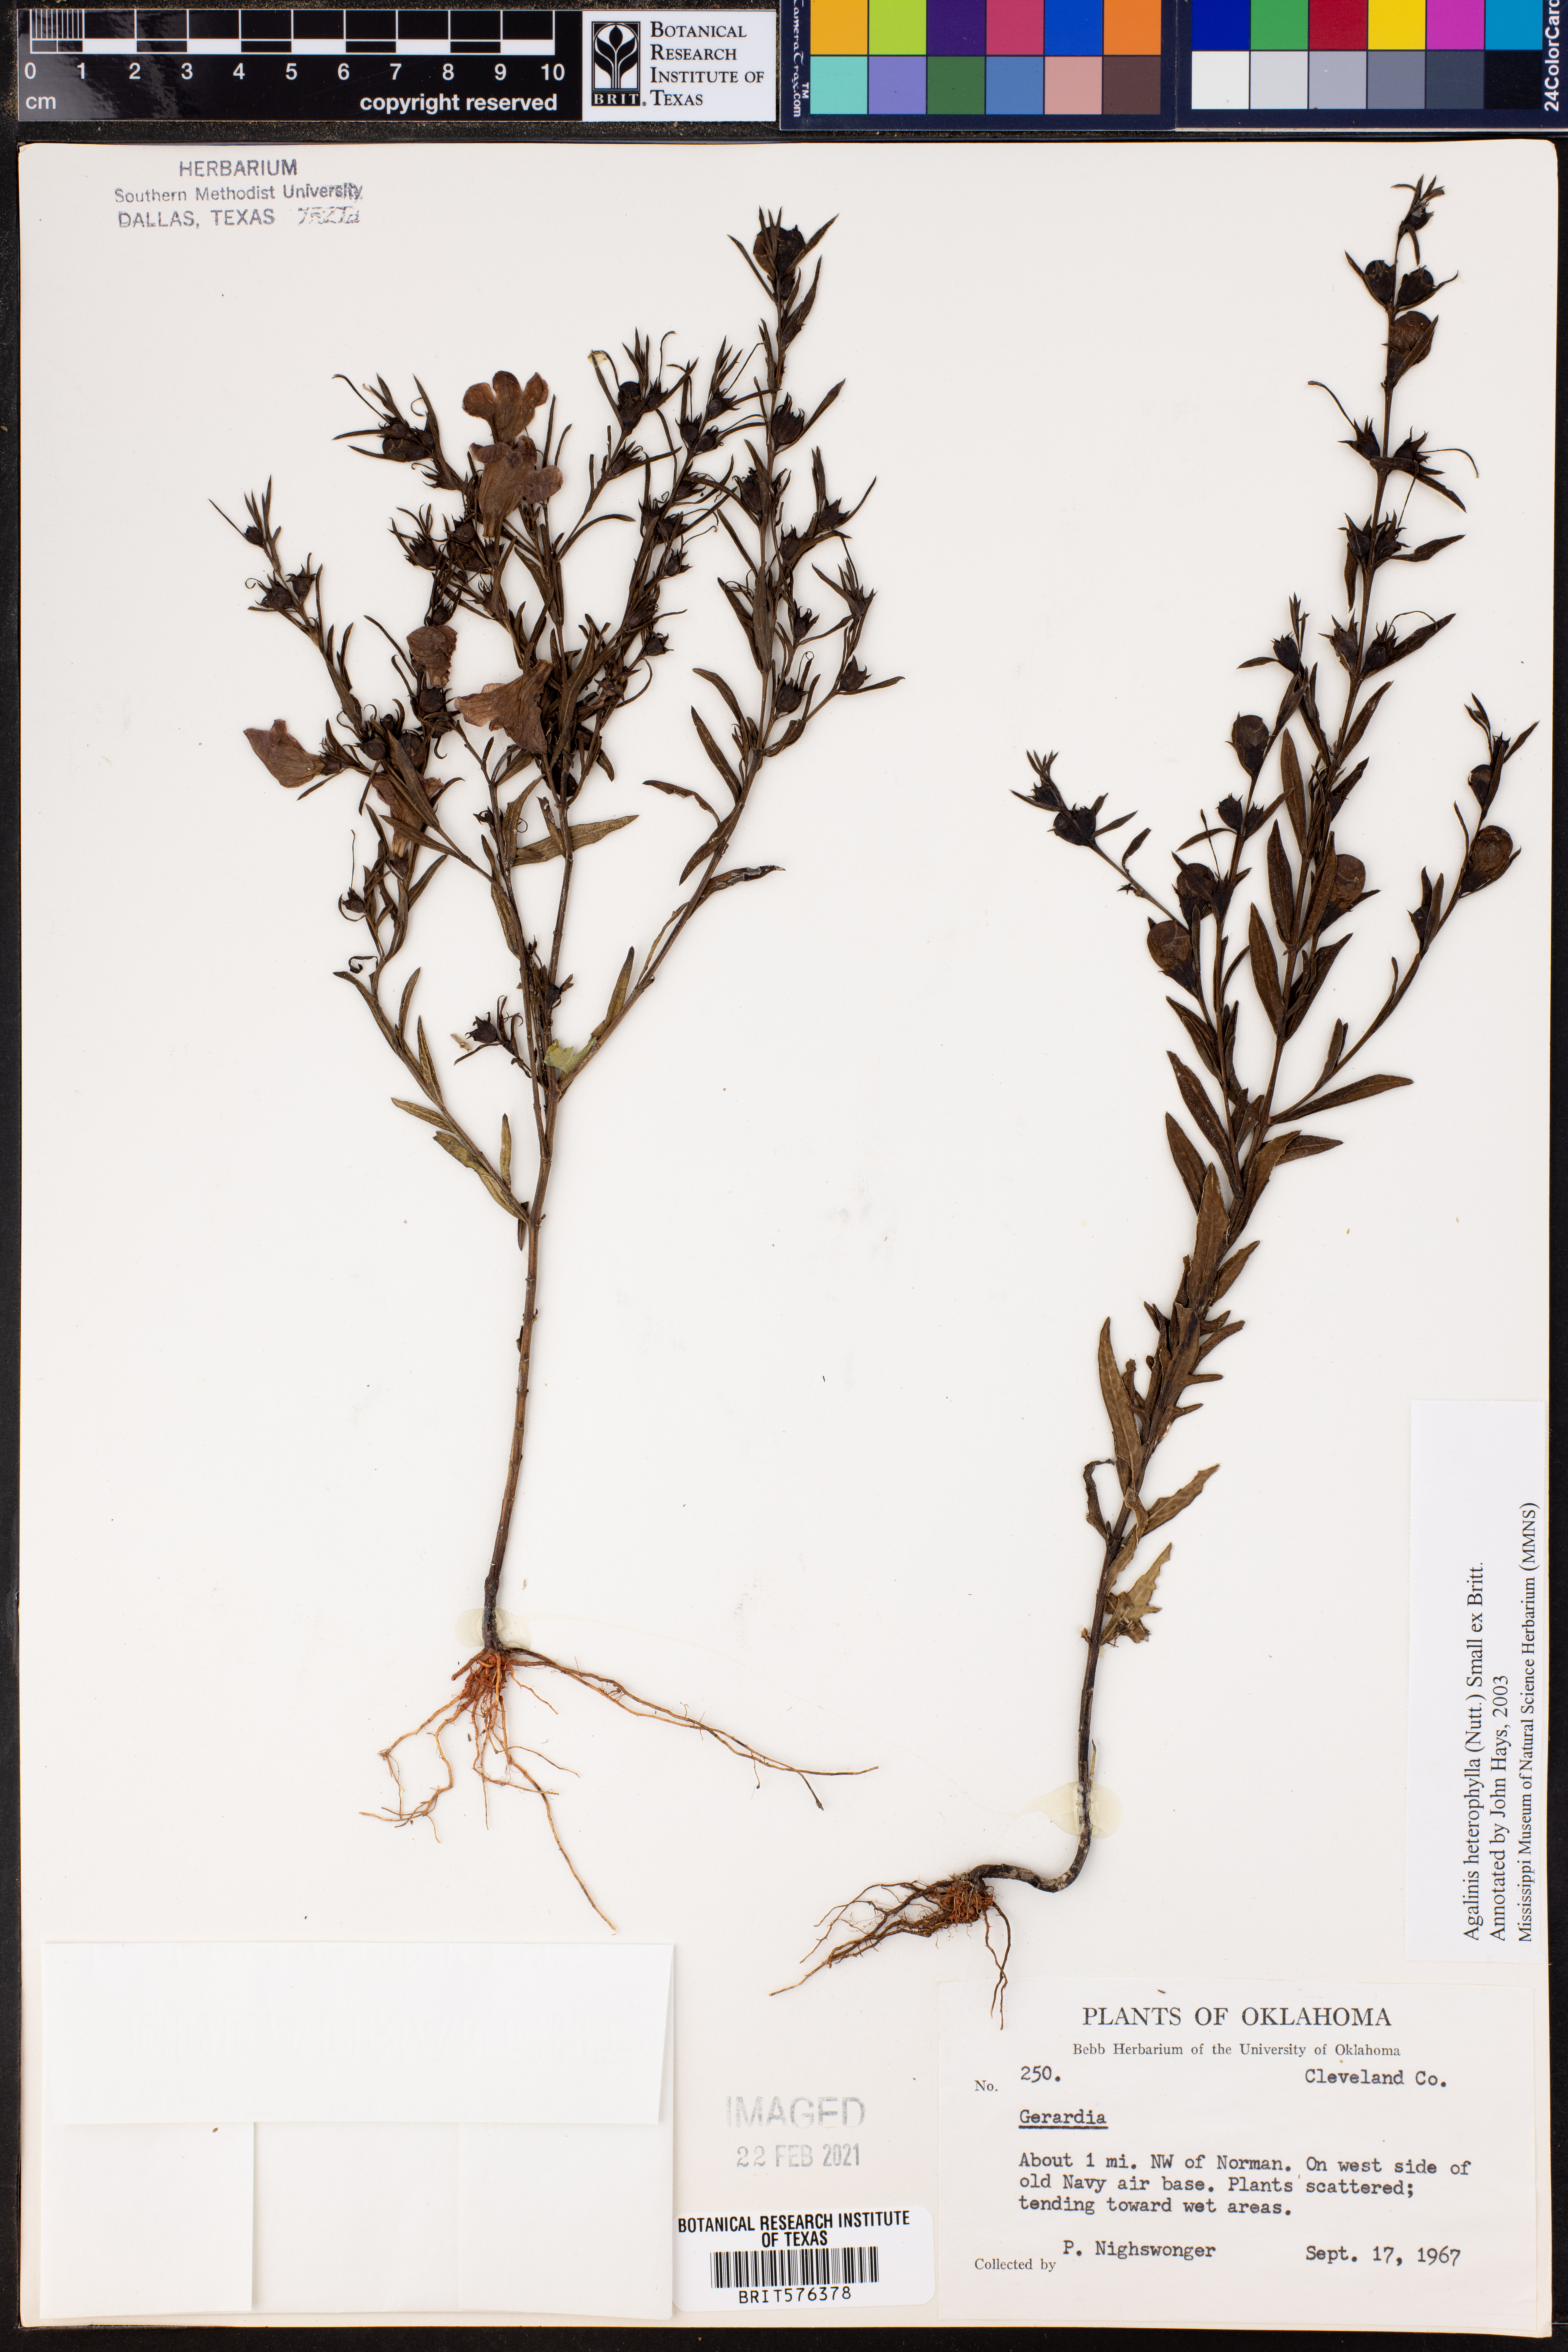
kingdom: Plantae
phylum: Tracheophyta
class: Magnoliopsida
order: Lamiales
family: Orobanchaceae
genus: Agalinis
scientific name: Agalinis heterophylla
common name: Prairie agalinis
